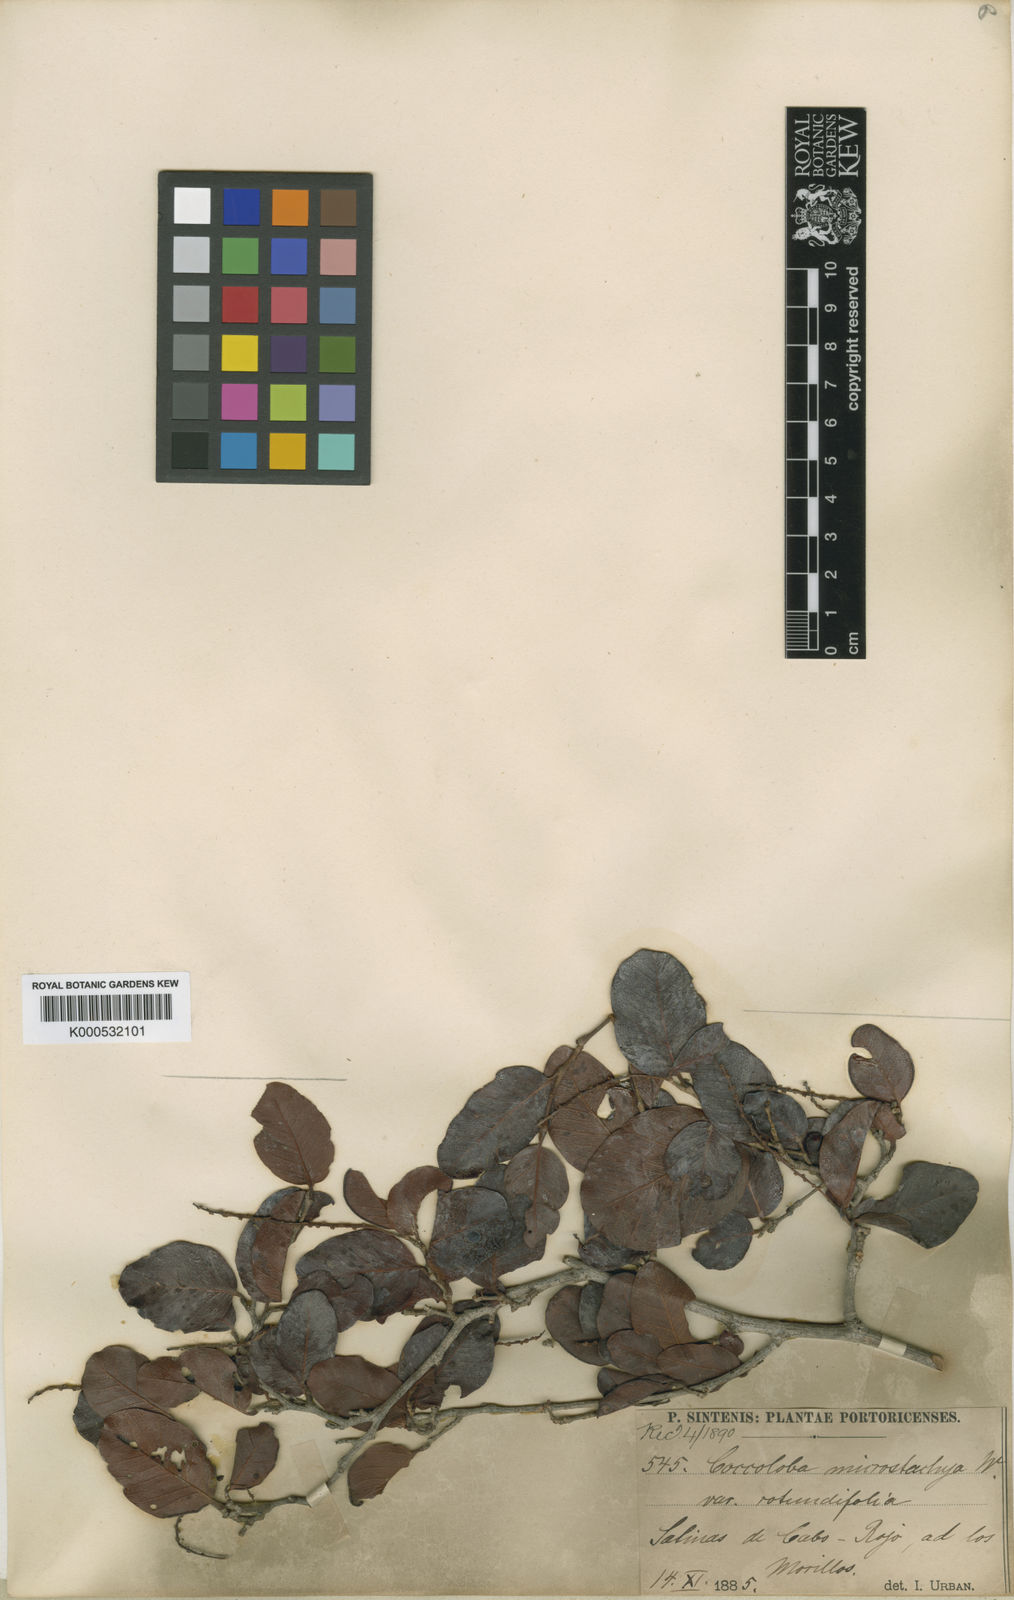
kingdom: Plantae
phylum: Tracheophyta
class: Magnoliopsida
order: Caryophyllales
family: Polygonaceae
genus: Coccoloba
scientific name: Coccoloba microstachya
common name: Puckout
